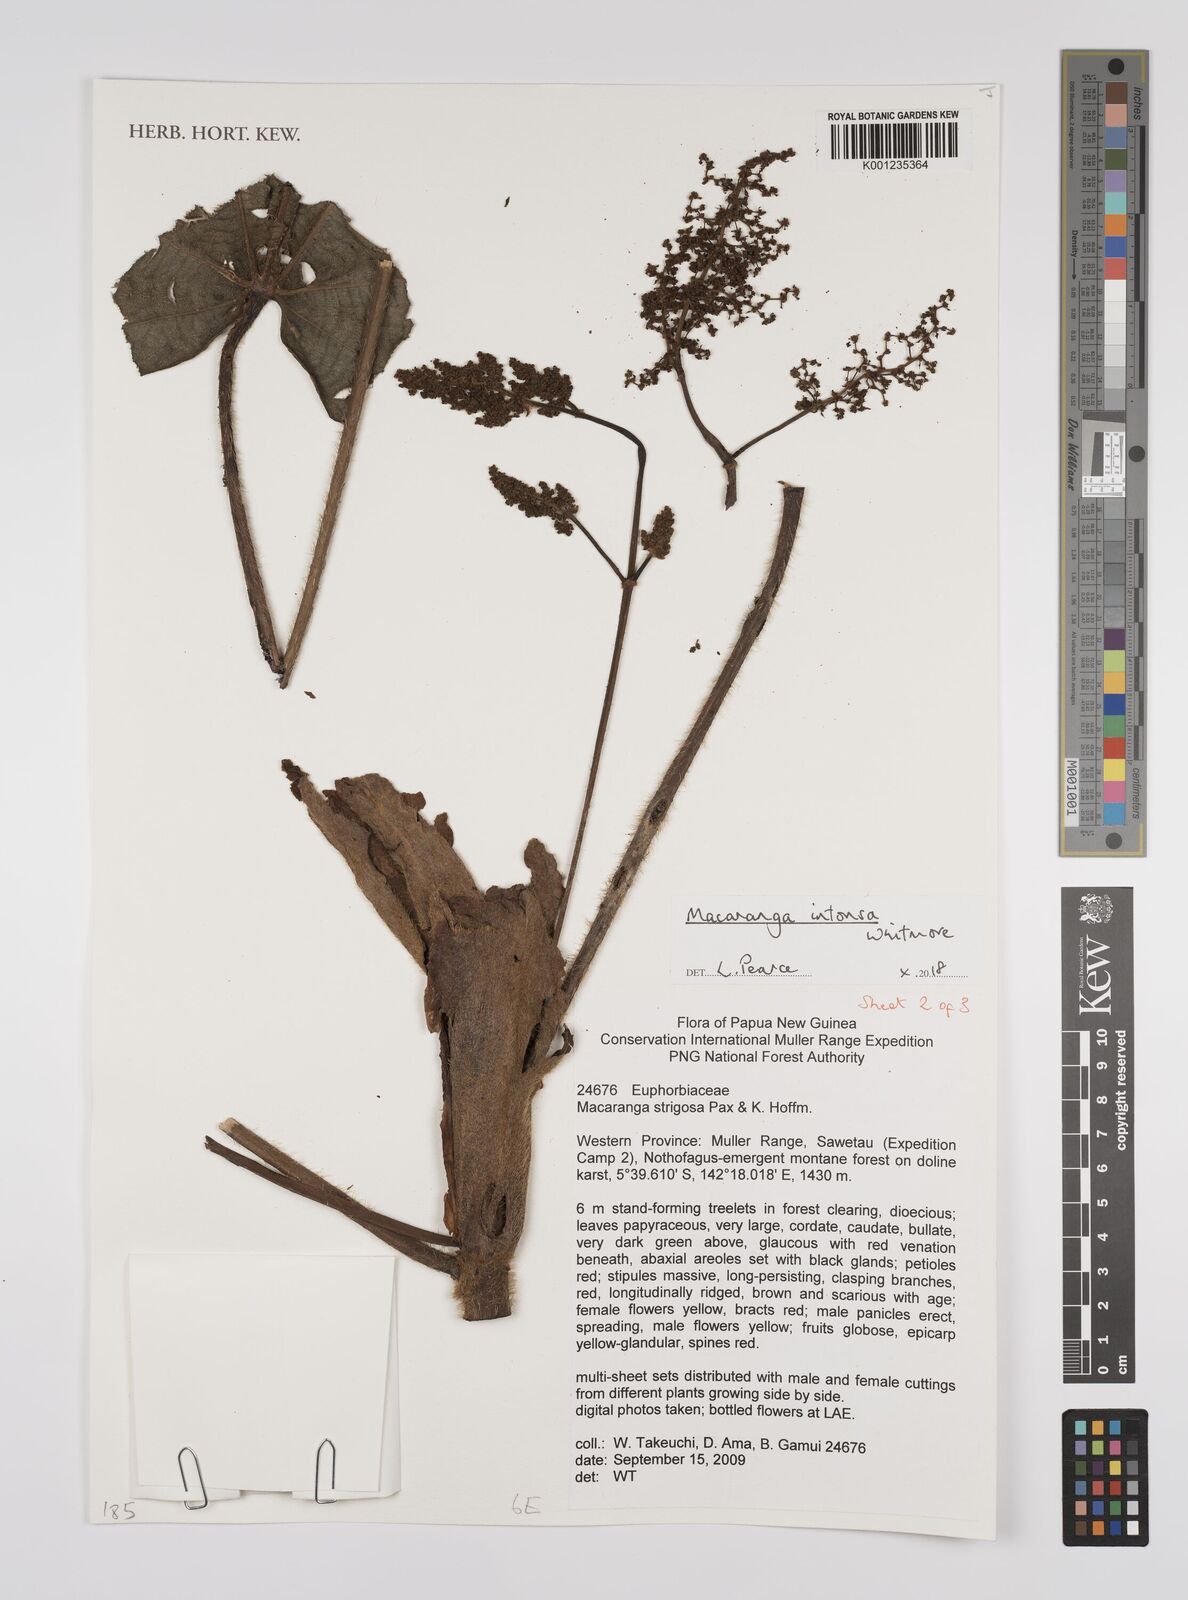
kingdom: Plantae
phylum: Tracheophyta
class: Magnoliopsida
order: Malpighiales
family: Euphorbiaceae
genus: Macaranga
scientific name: Macaranga intonsa
